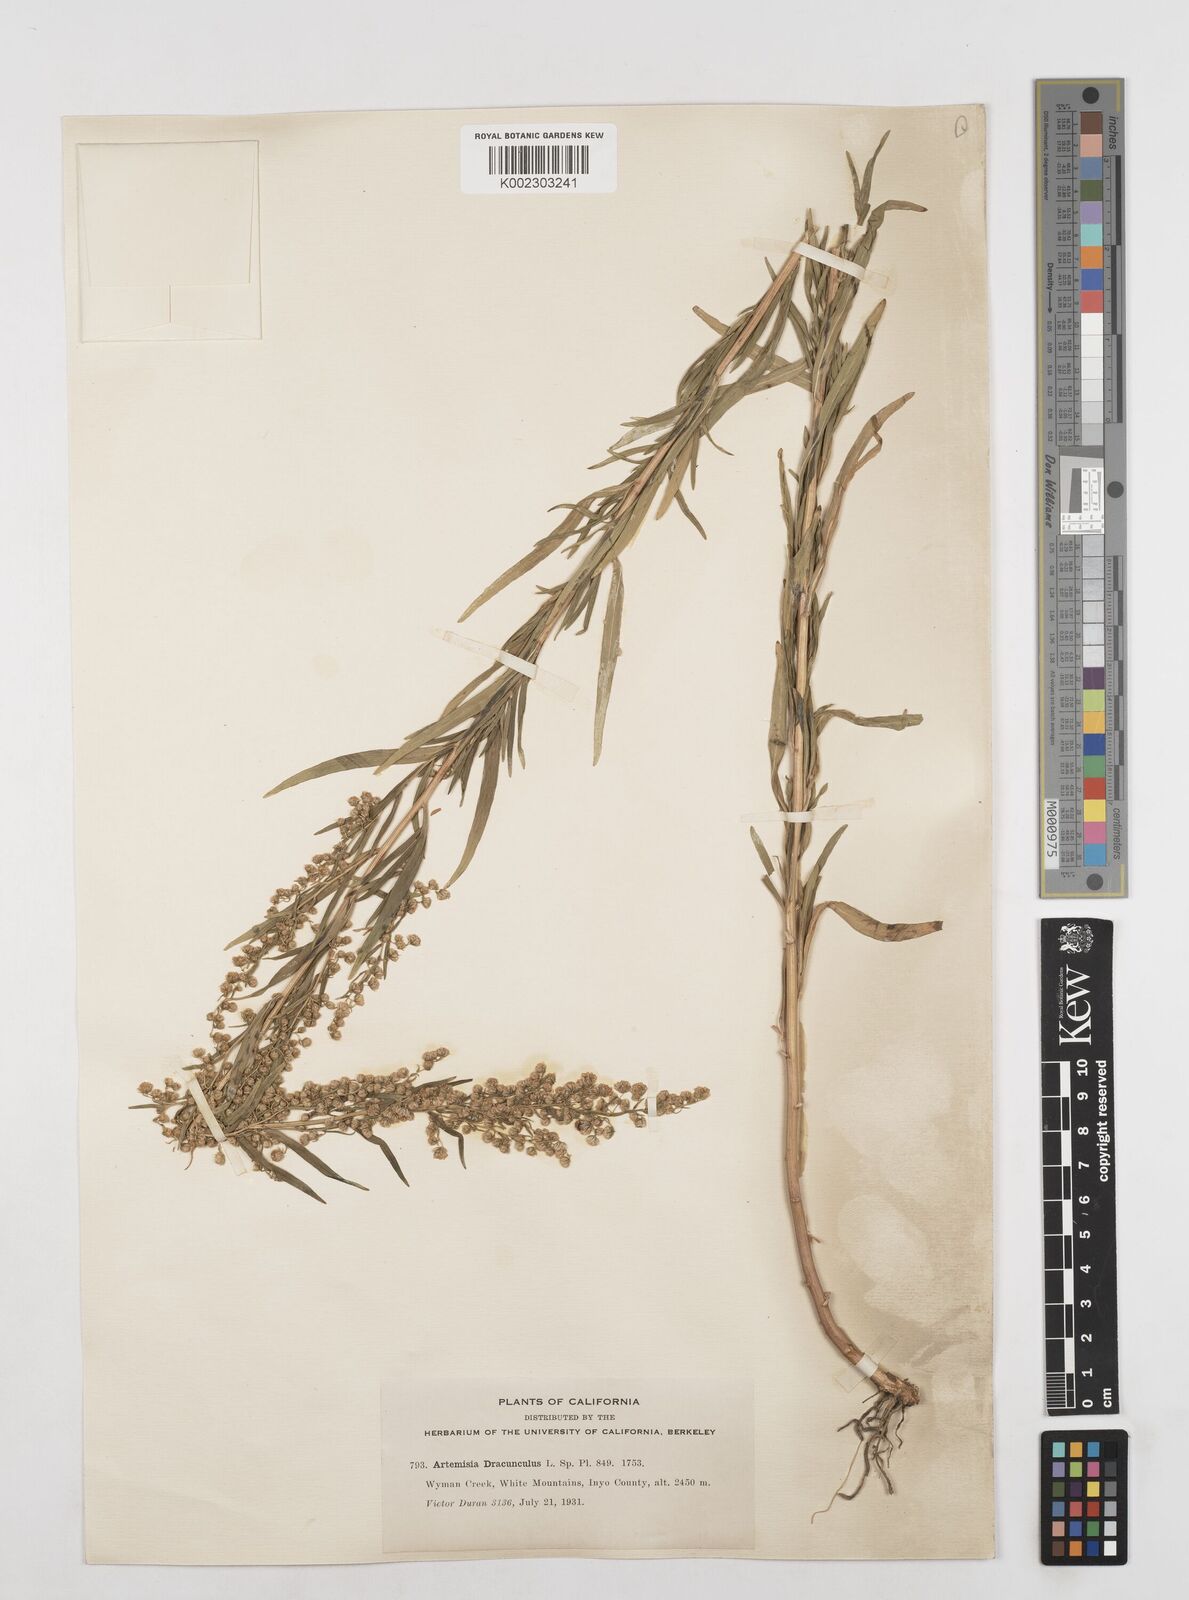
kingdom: Plantae
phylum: Tracheophyta
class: Magnoliopsida
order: Asterales
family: Asteraceae
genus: Artemisia
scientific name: Artemisia dracunculus
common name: Tarragon
